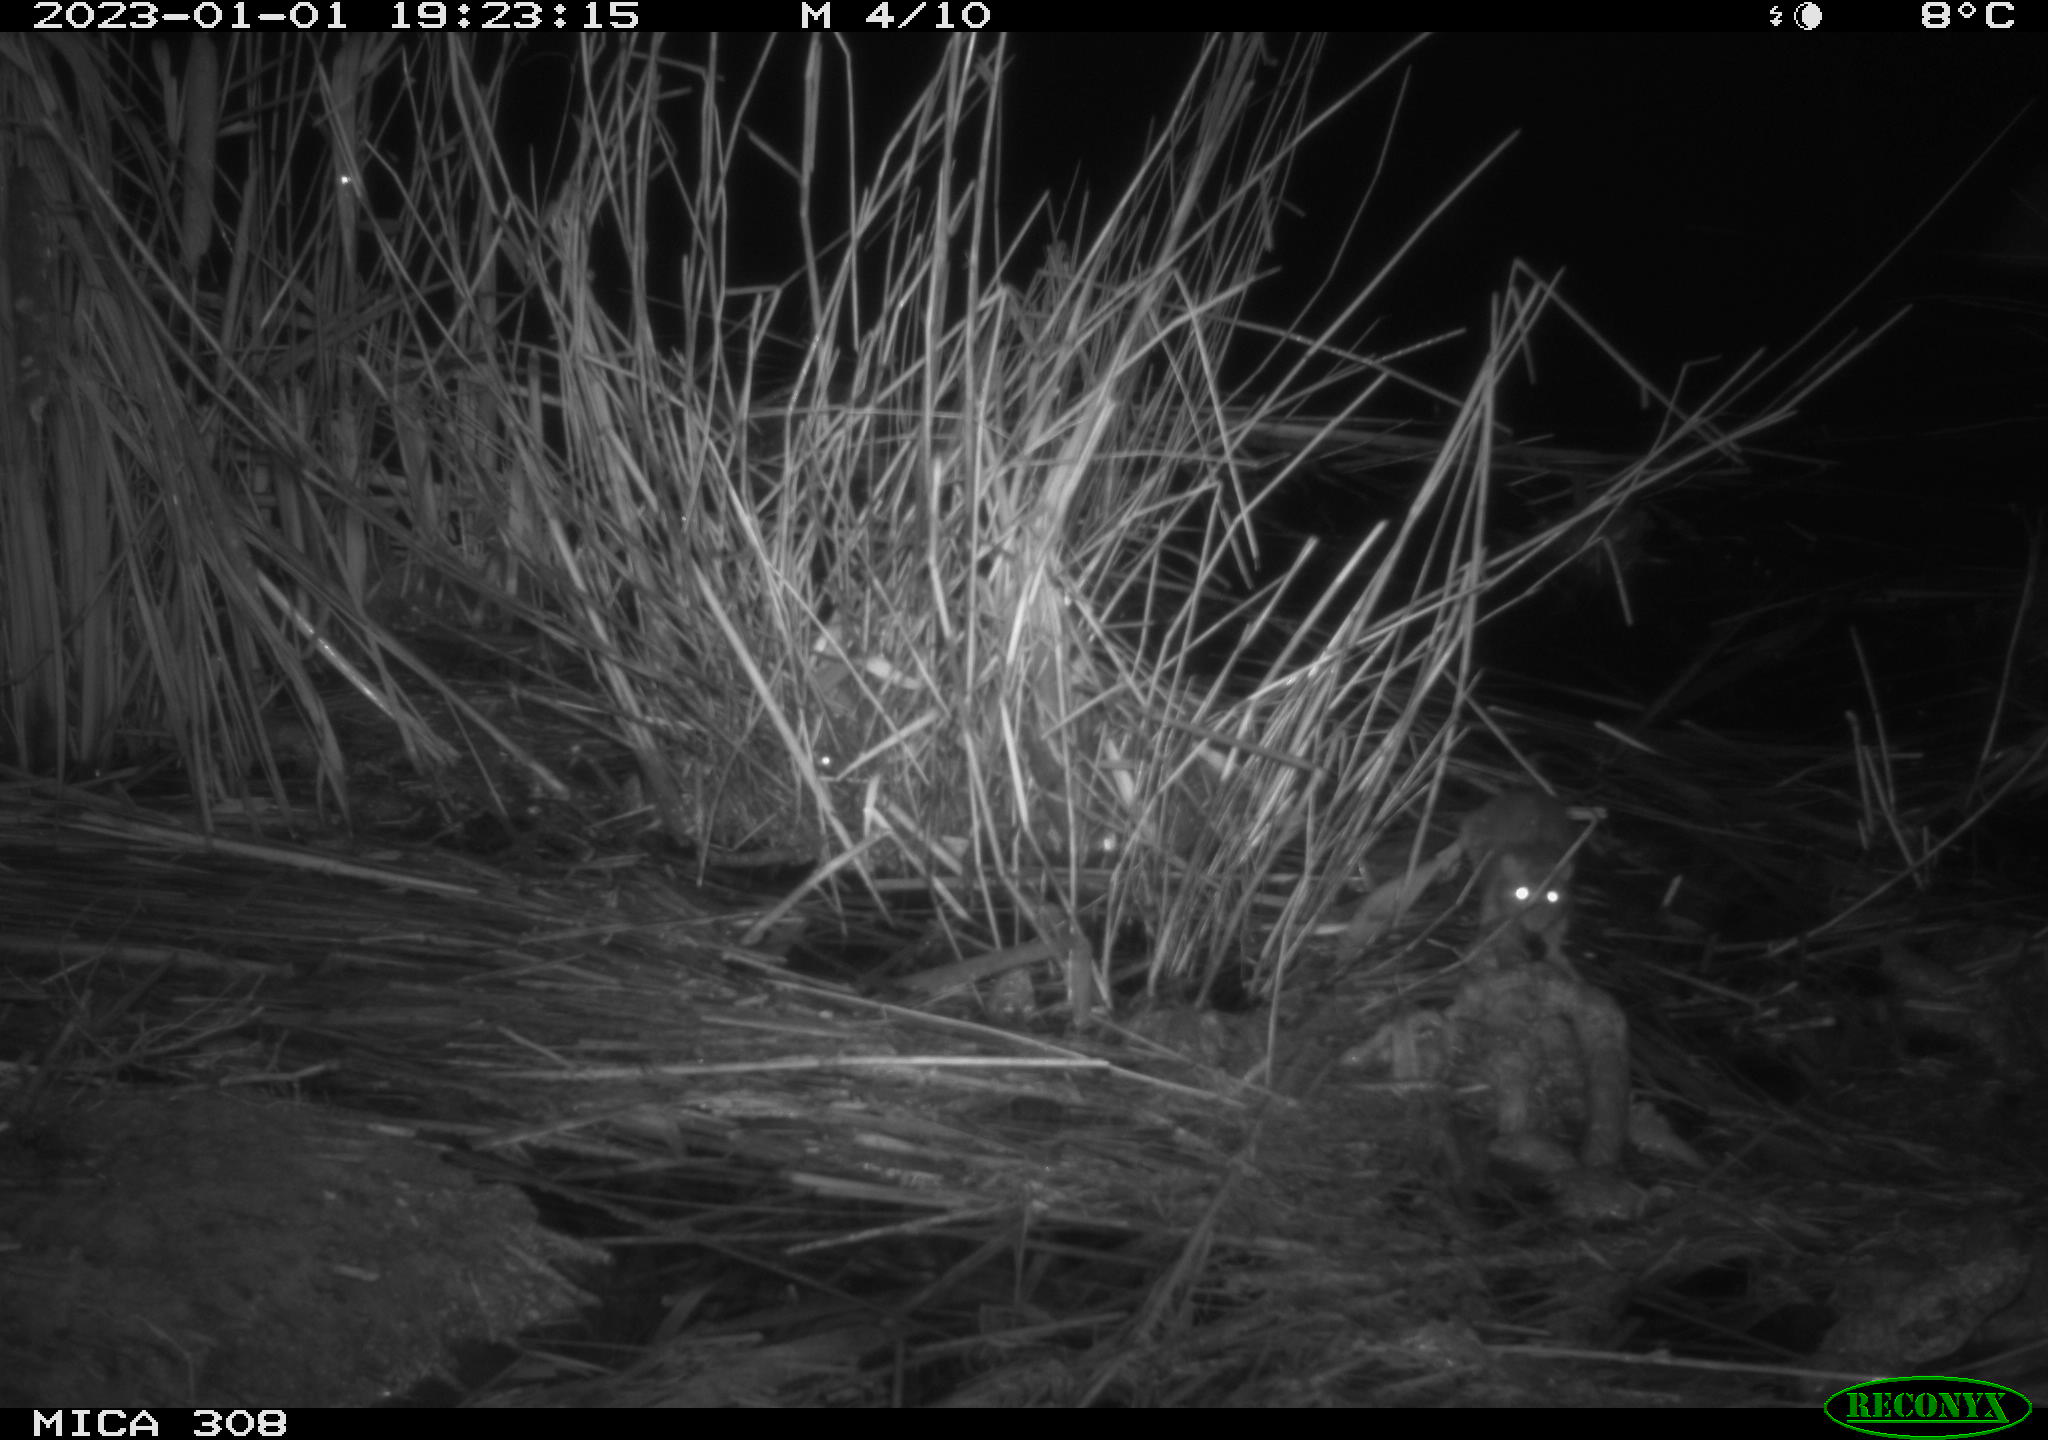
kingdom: Animalia
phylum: Chordata
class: Mammalia
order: Rodentia
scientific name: Rodentia
